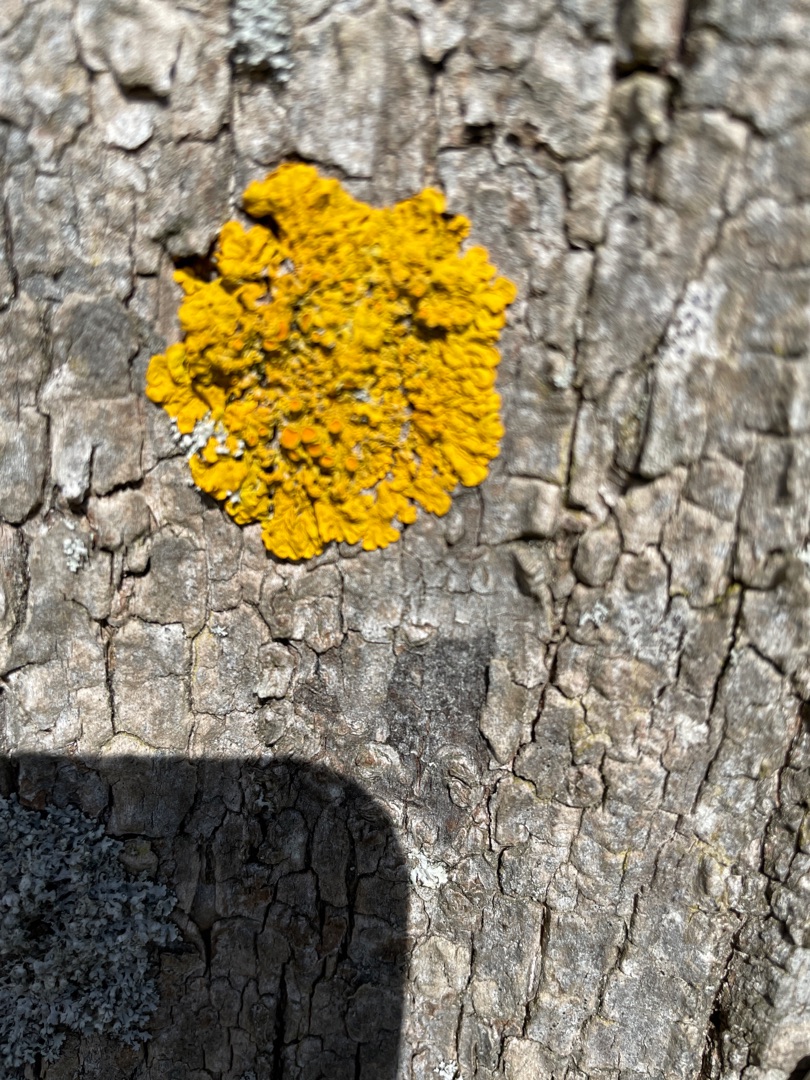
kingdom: Fungi
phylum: Ascomycota
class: Lecanoromycetes
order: Teloschistales
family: Teloschistaceae
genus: Xanthoria
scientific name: Xanthoria parietina
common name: Almindelig væggelav
